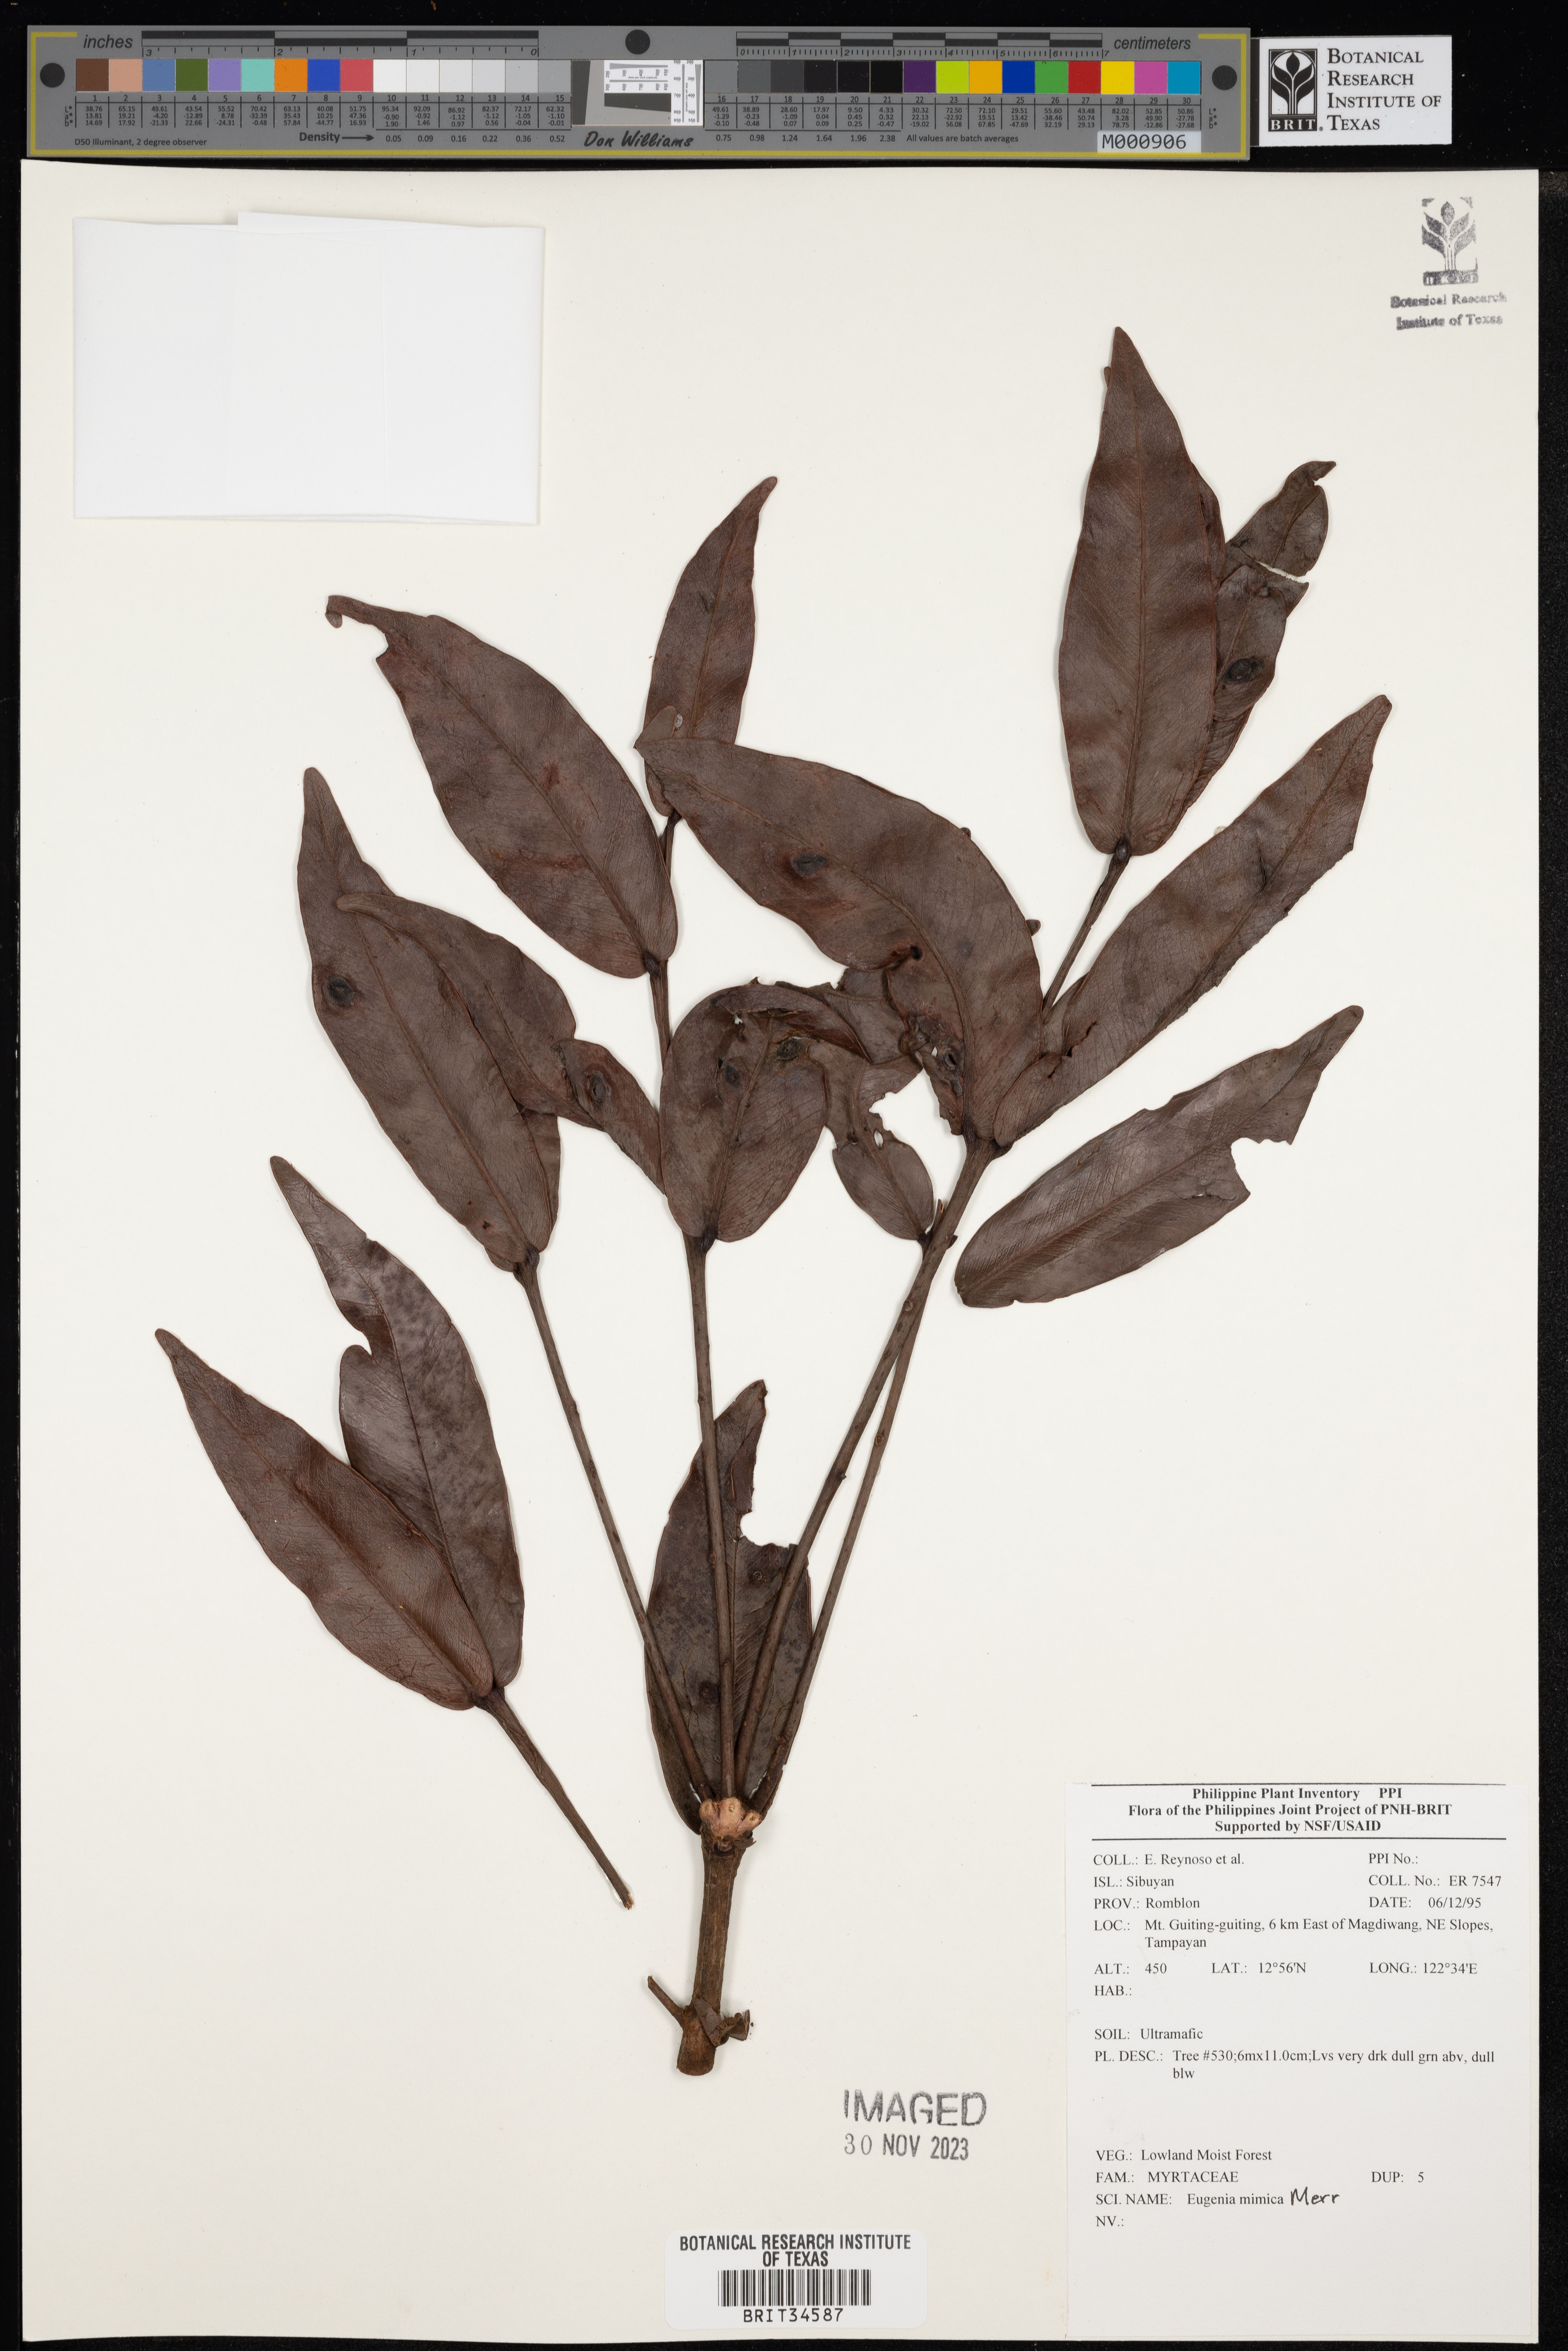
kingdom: Plantae
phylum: Tracheophyta
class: Magnoliopsida
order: Myrtales
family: Myrtaceae
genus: Eugenia
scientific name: Eugenia
